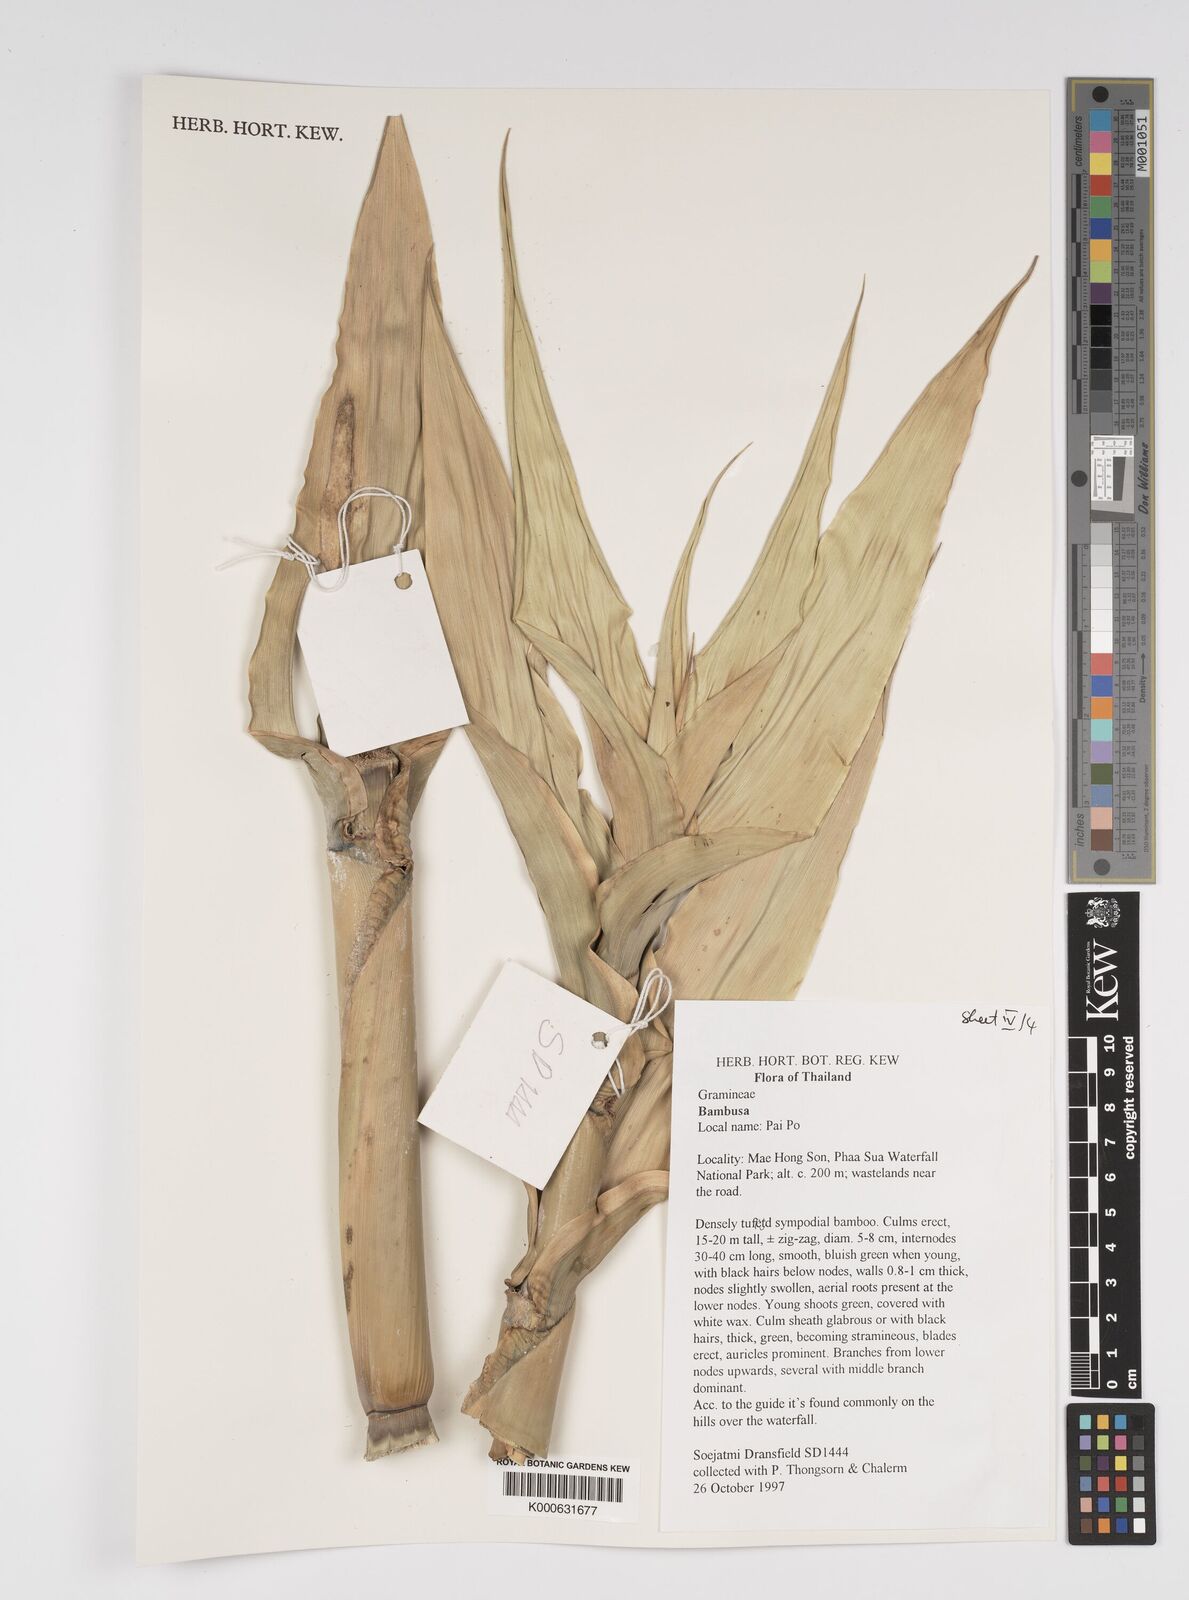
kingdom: Plantae
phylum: Tracheophyta
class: Liliopsida
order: Poales
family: Poaceae
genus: Bambusa
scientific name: Bambusa
